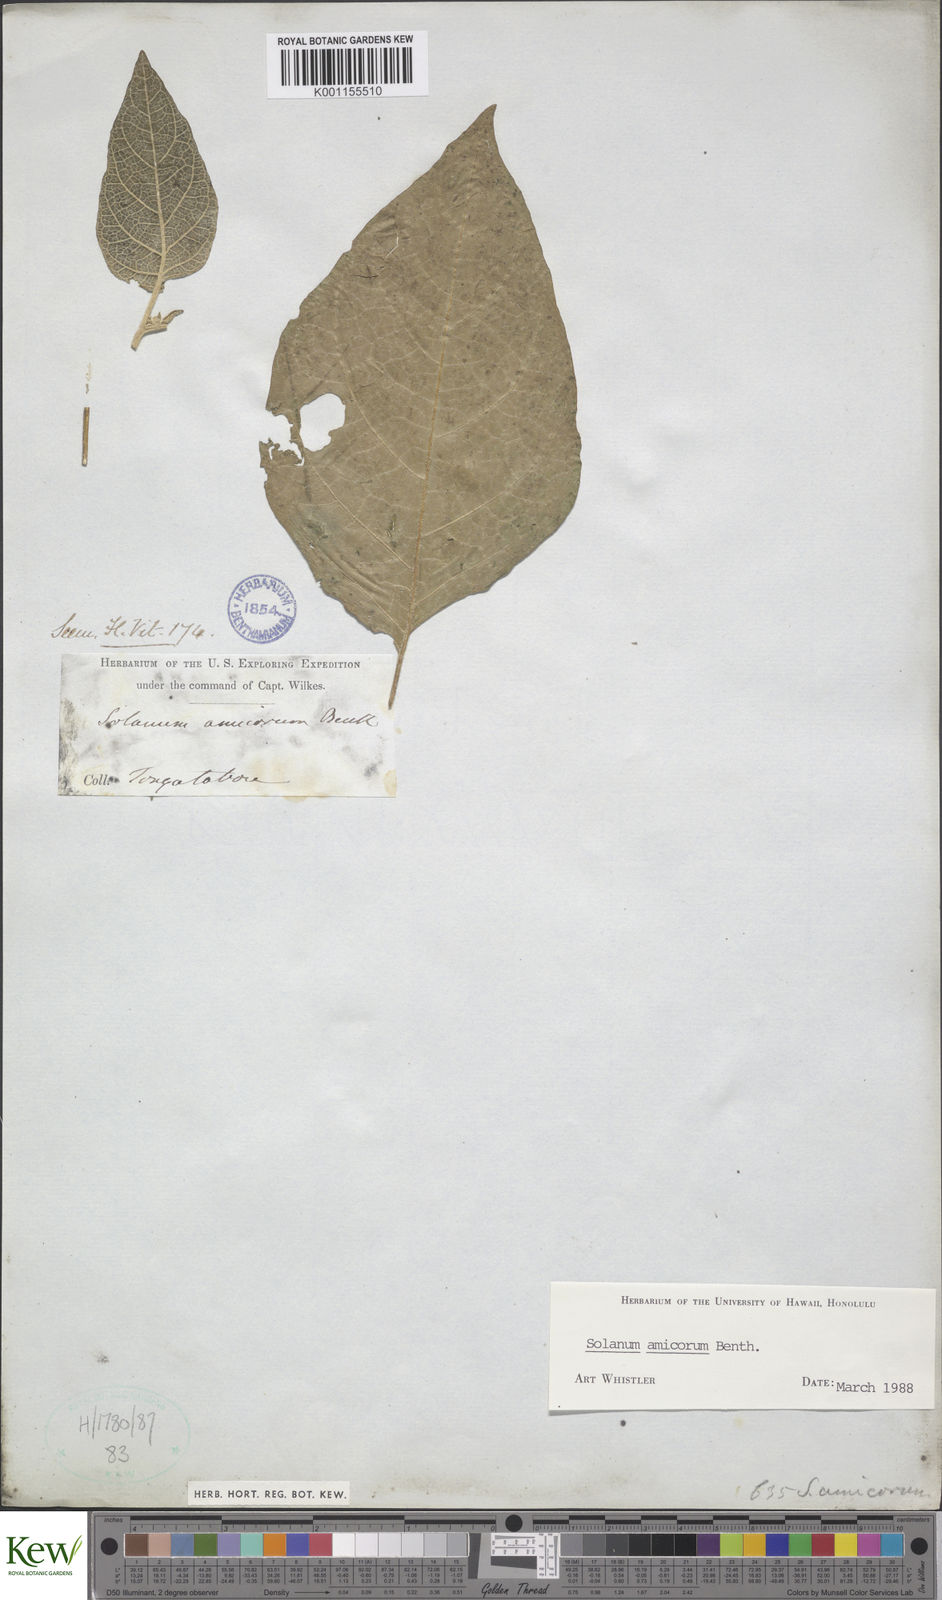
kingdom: Plantae
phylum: Tracheophyta
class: Magnoliopsida
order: Solanales
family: Solanaceae
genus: Solanum
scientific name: Solanum amicorum
